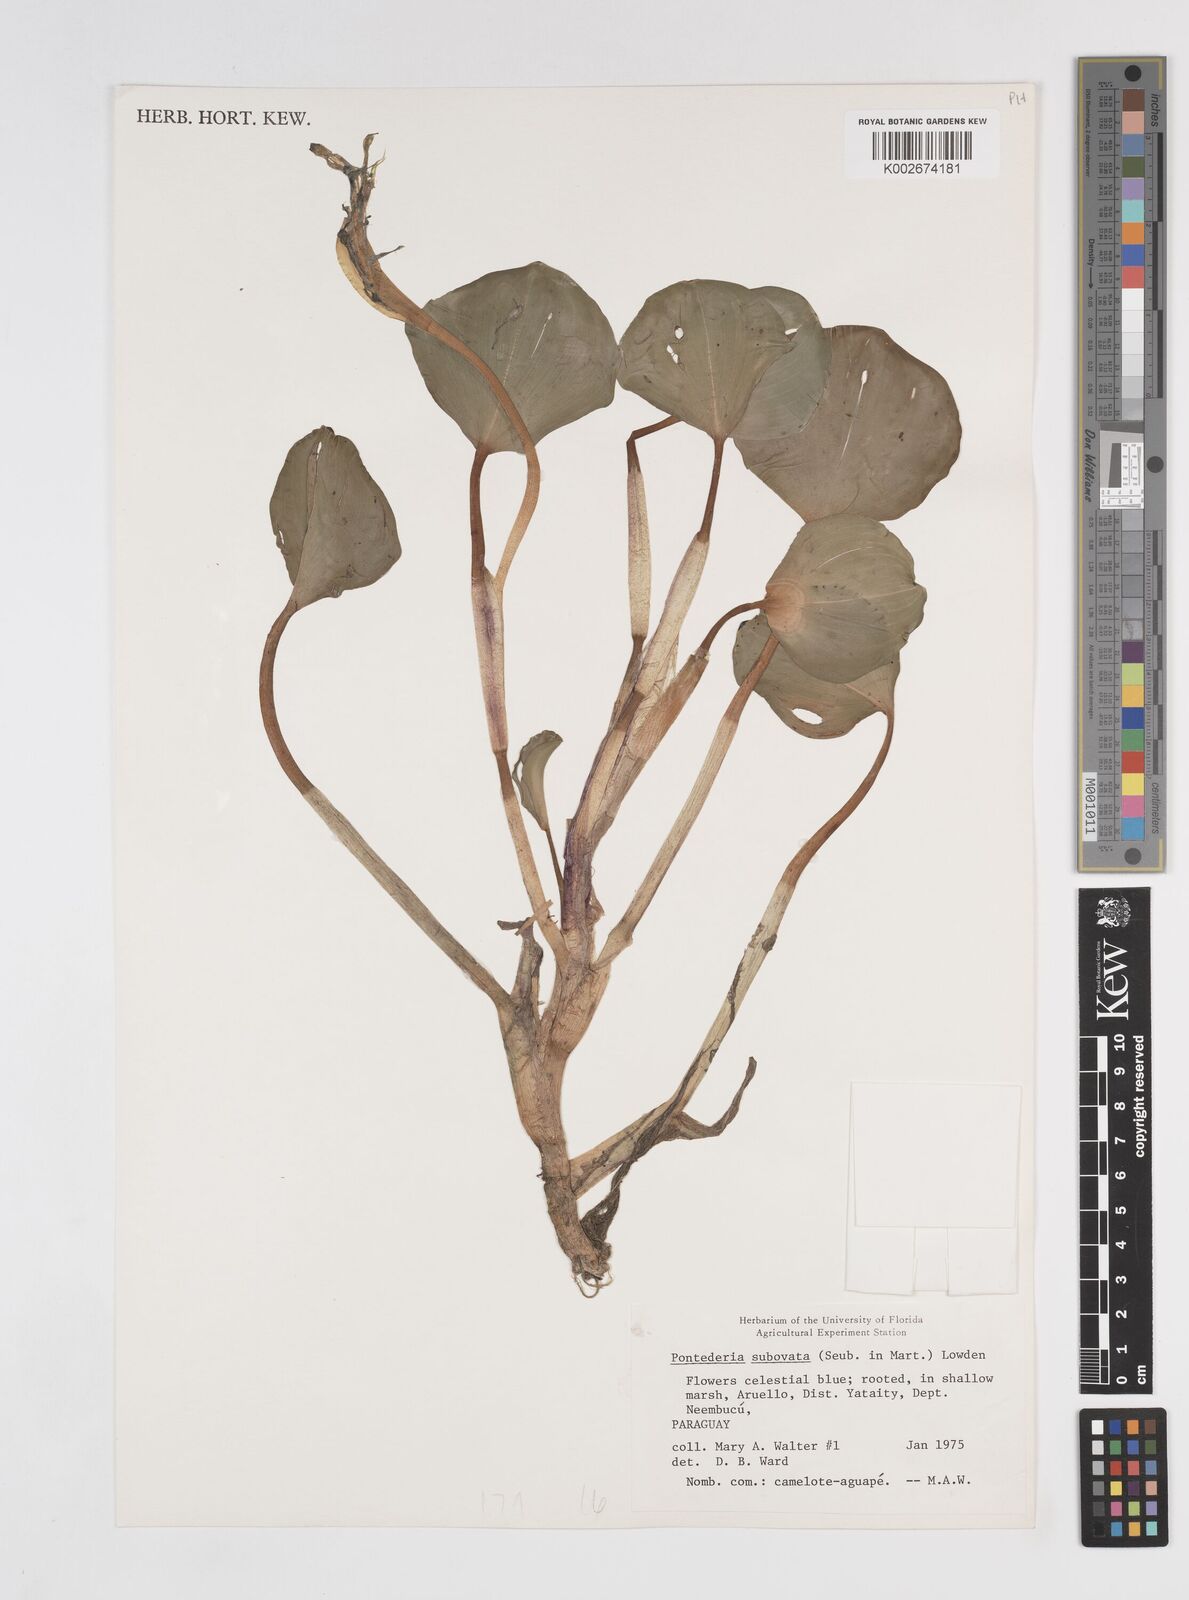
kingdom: Plantae
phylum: Tracheophyta
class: Liliopsida
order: Commelinales
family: Pontederiaceae
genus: Pontederia
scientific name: Pontederia subovata
